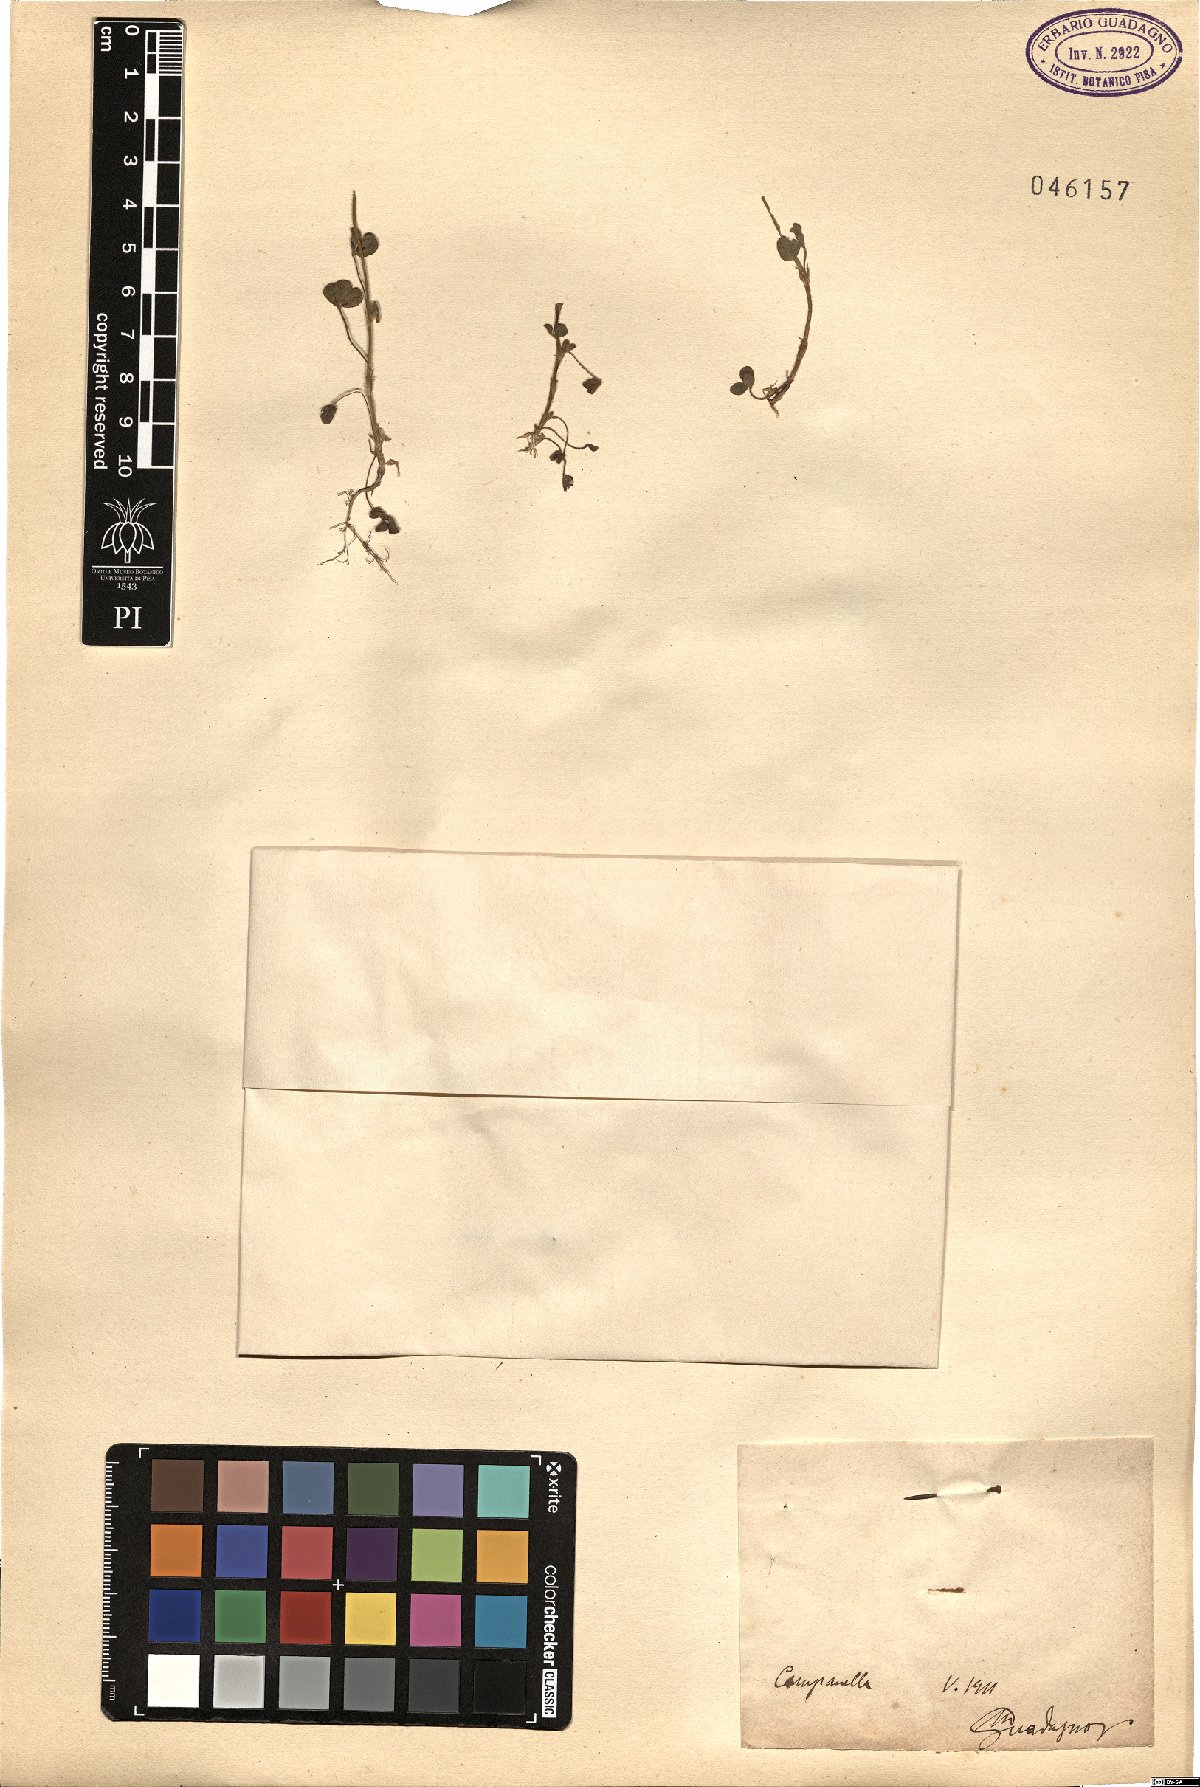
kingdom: Plantae
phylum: Tracheophyta
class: Magnoliopsida
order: Fabales
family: Fabaceae
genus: Trifolium
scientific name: Trifolium
